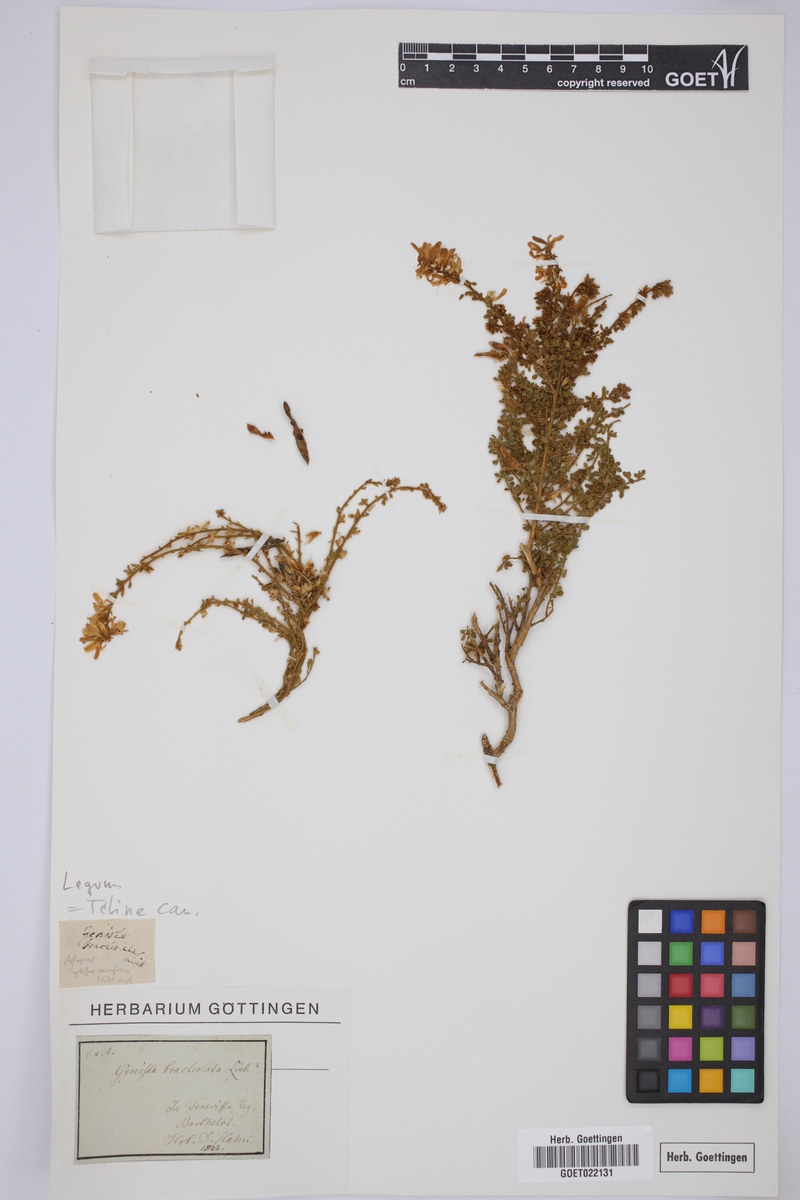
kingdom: Plantae
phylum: Tracheophyta
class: Magnoliopsida
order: Fabales
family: Fabaceae
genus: Genista
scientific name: Genista canariensis
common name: Canary broom
